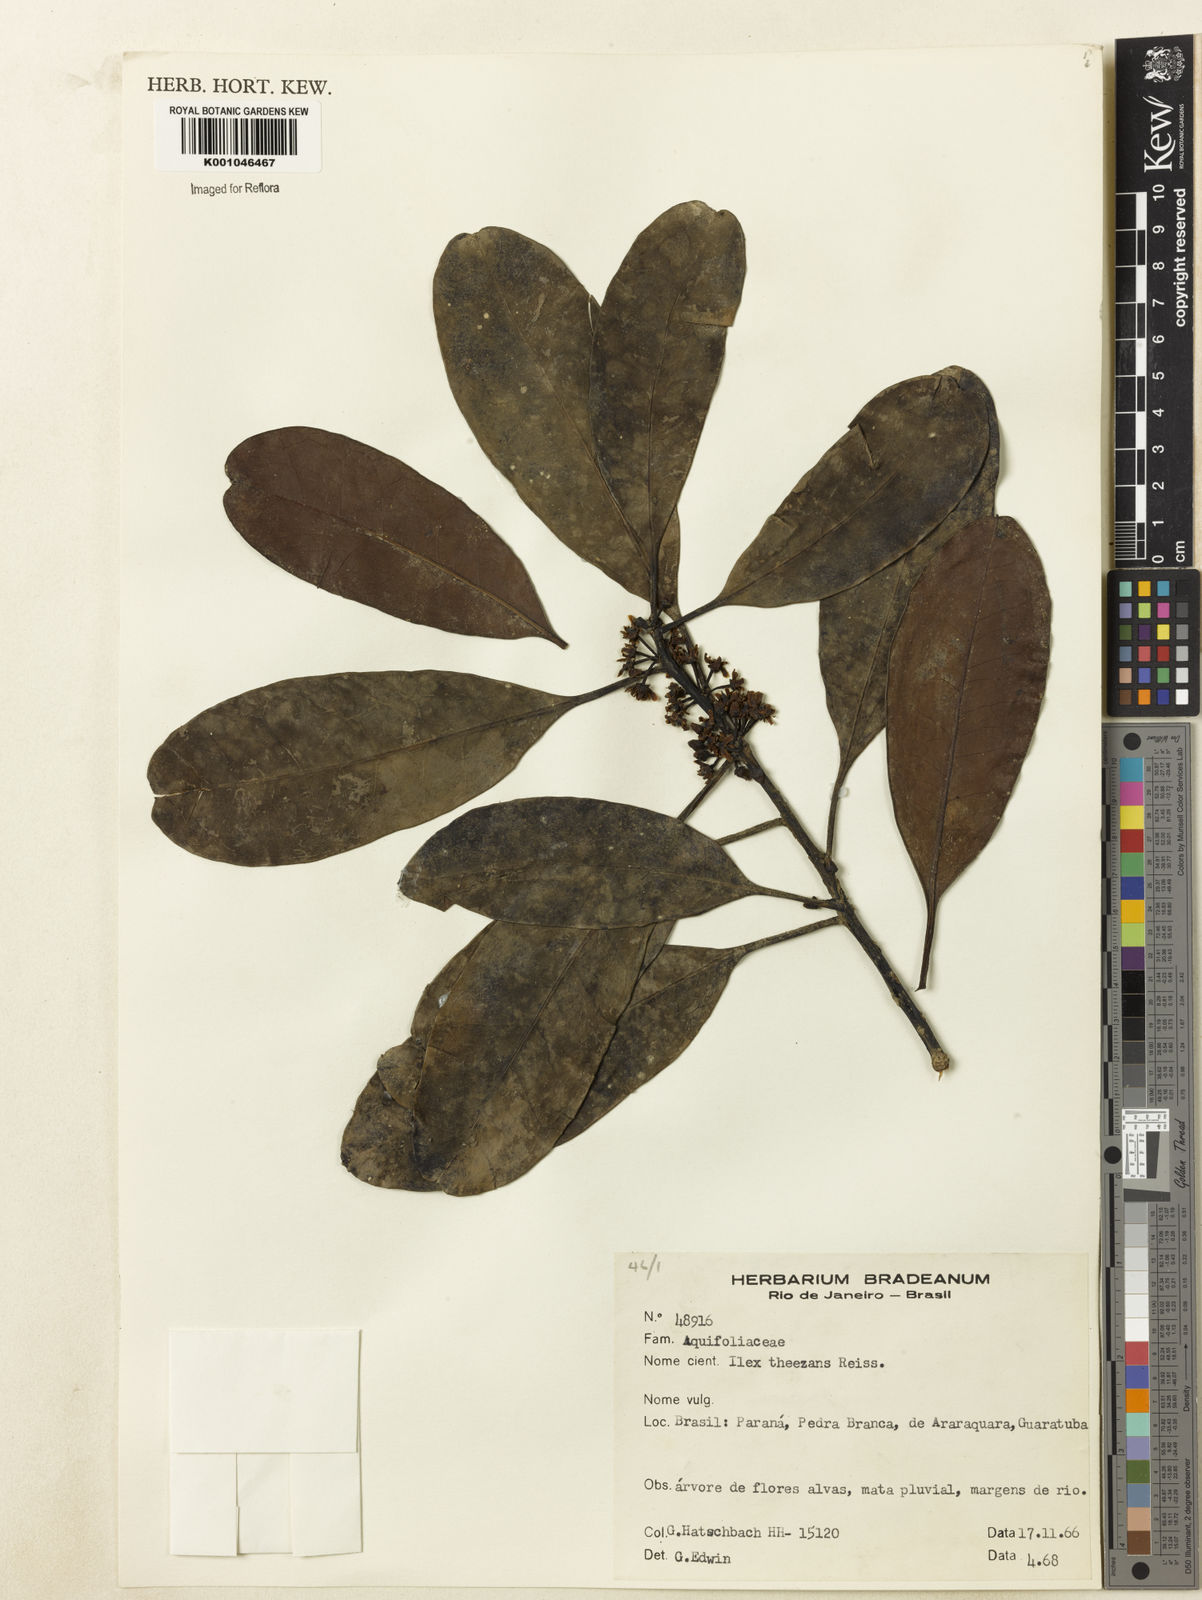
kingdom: Plantae
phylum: Tracheophyta
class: Magnoliopsida
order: Aquifoliales
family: Aquifoliaceae
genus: Ilex
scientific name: Ilex paraguariensis
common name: Paraguay tea
